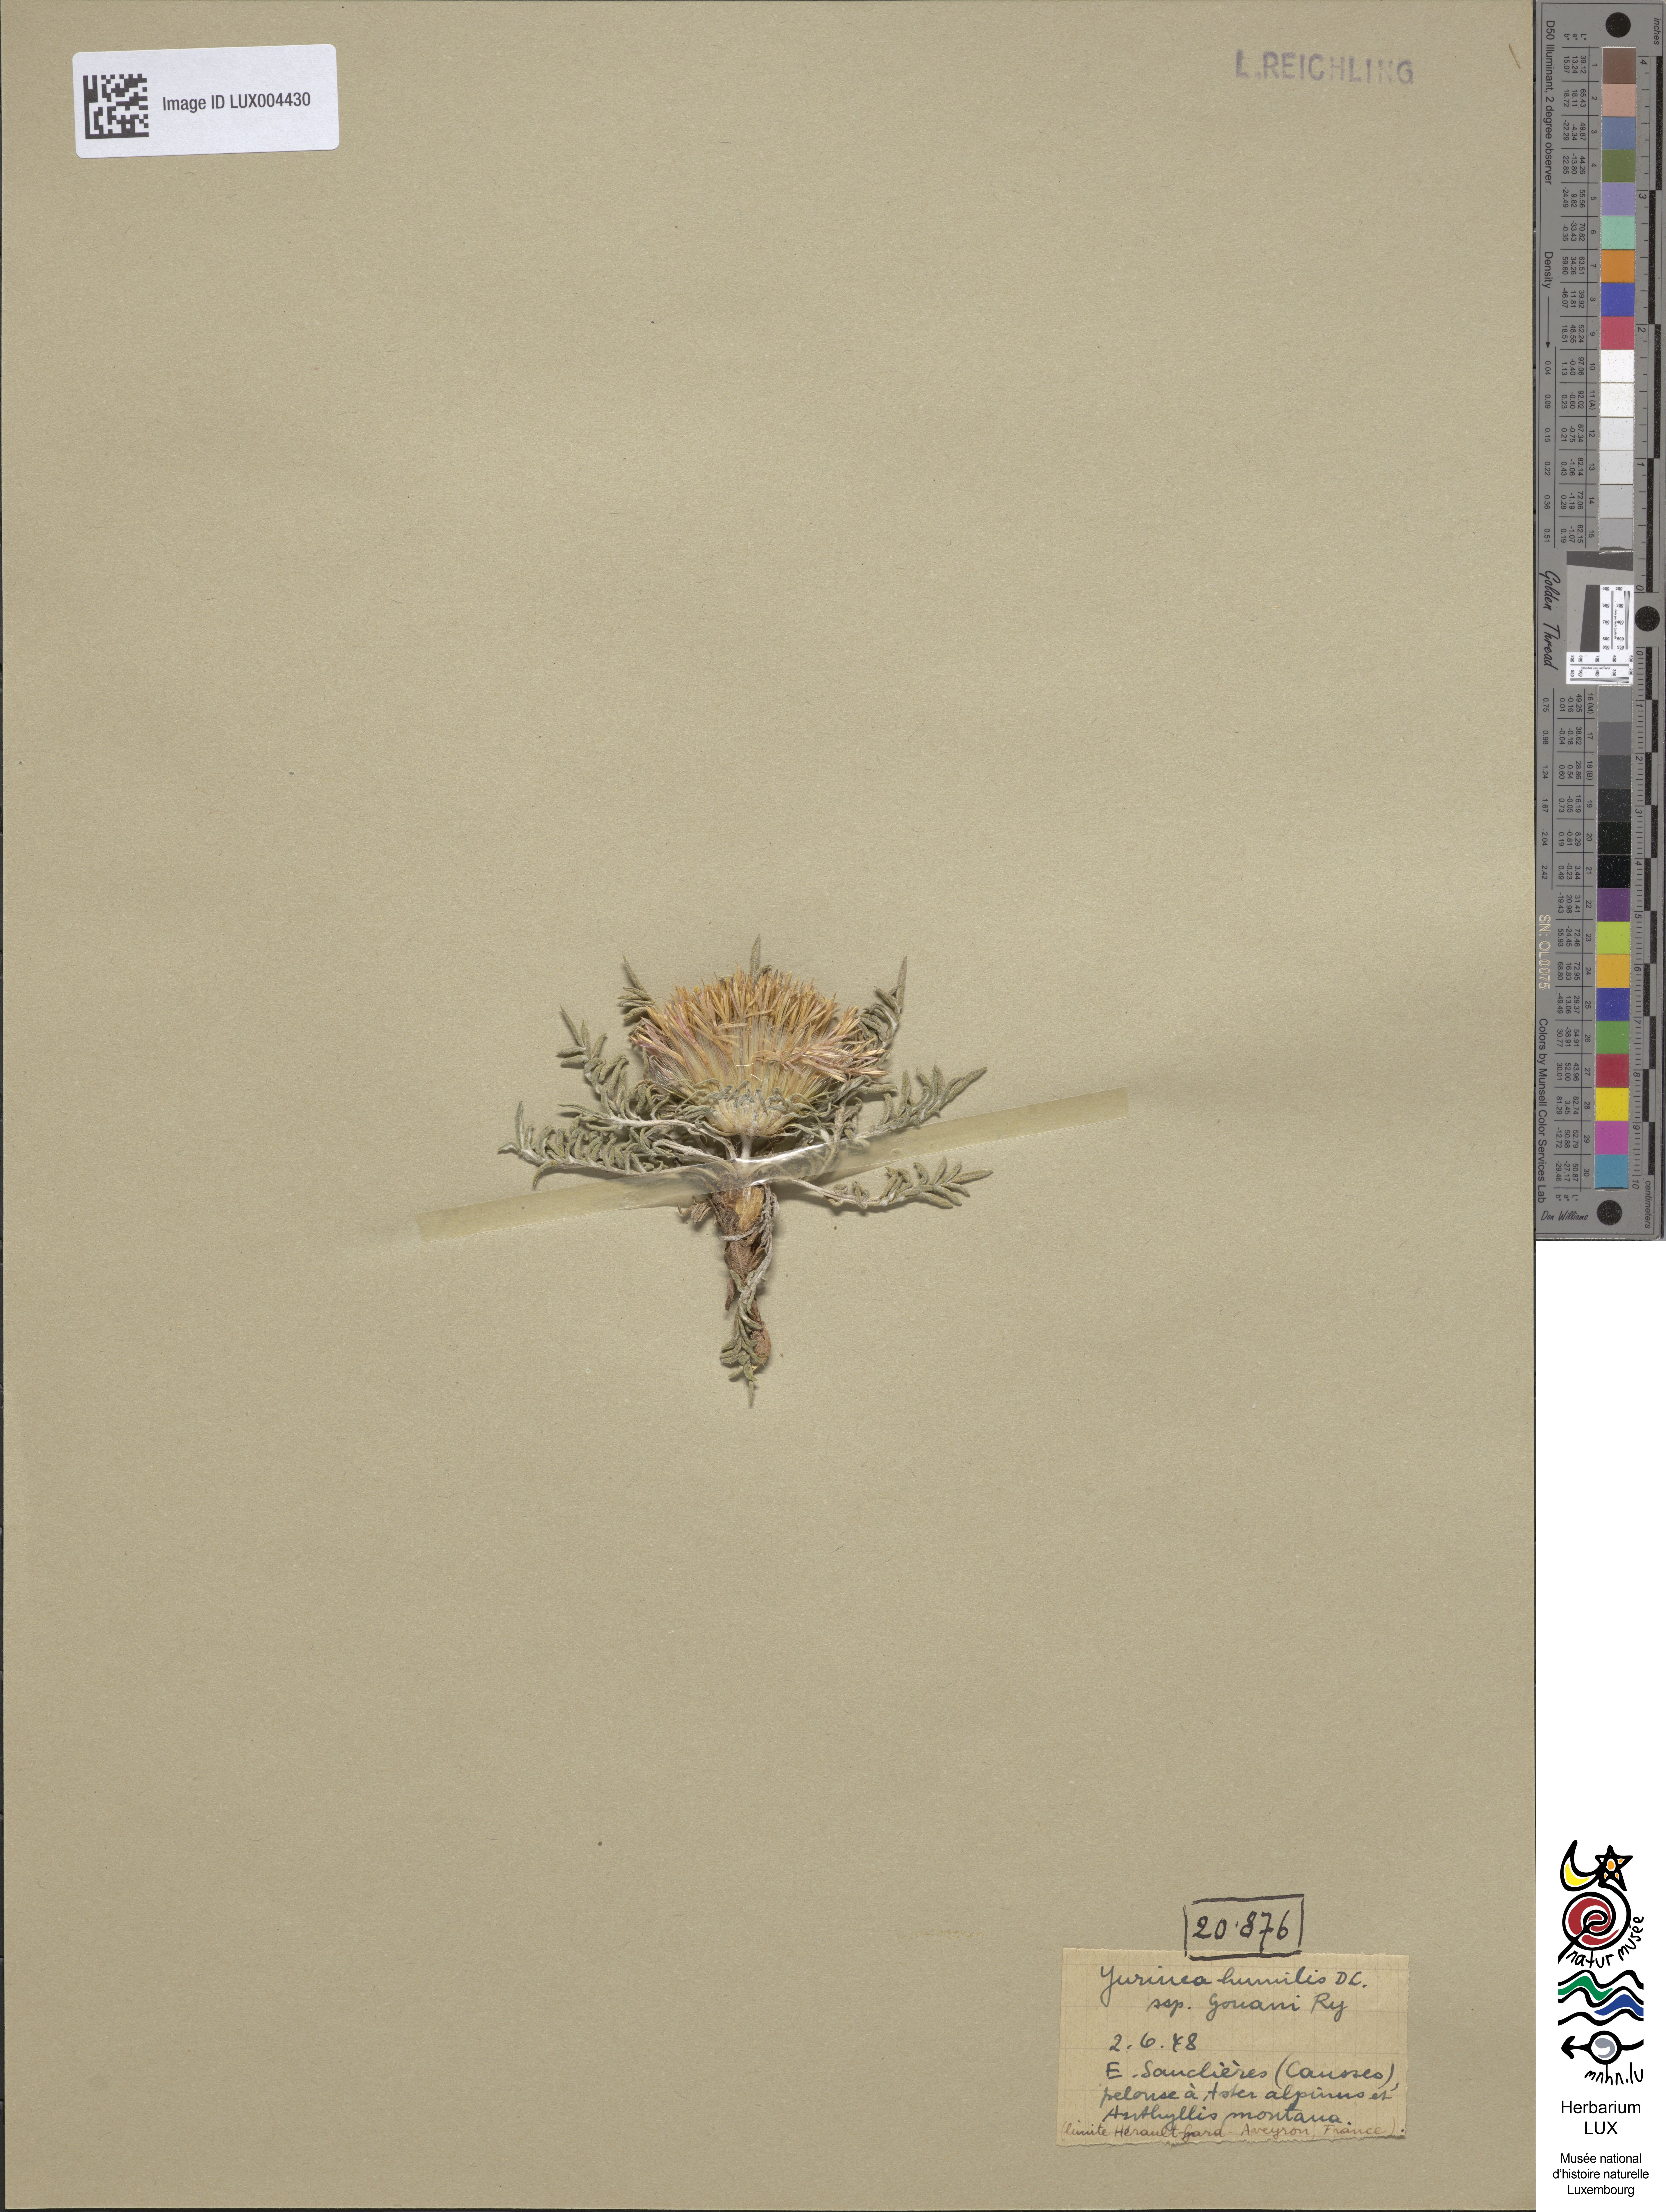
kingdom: Plantae
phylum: Tracheophyta
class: Magnoliopsida
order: Asterales
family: Asteraceae
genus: Jurinea
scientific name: Jurinea humilis
